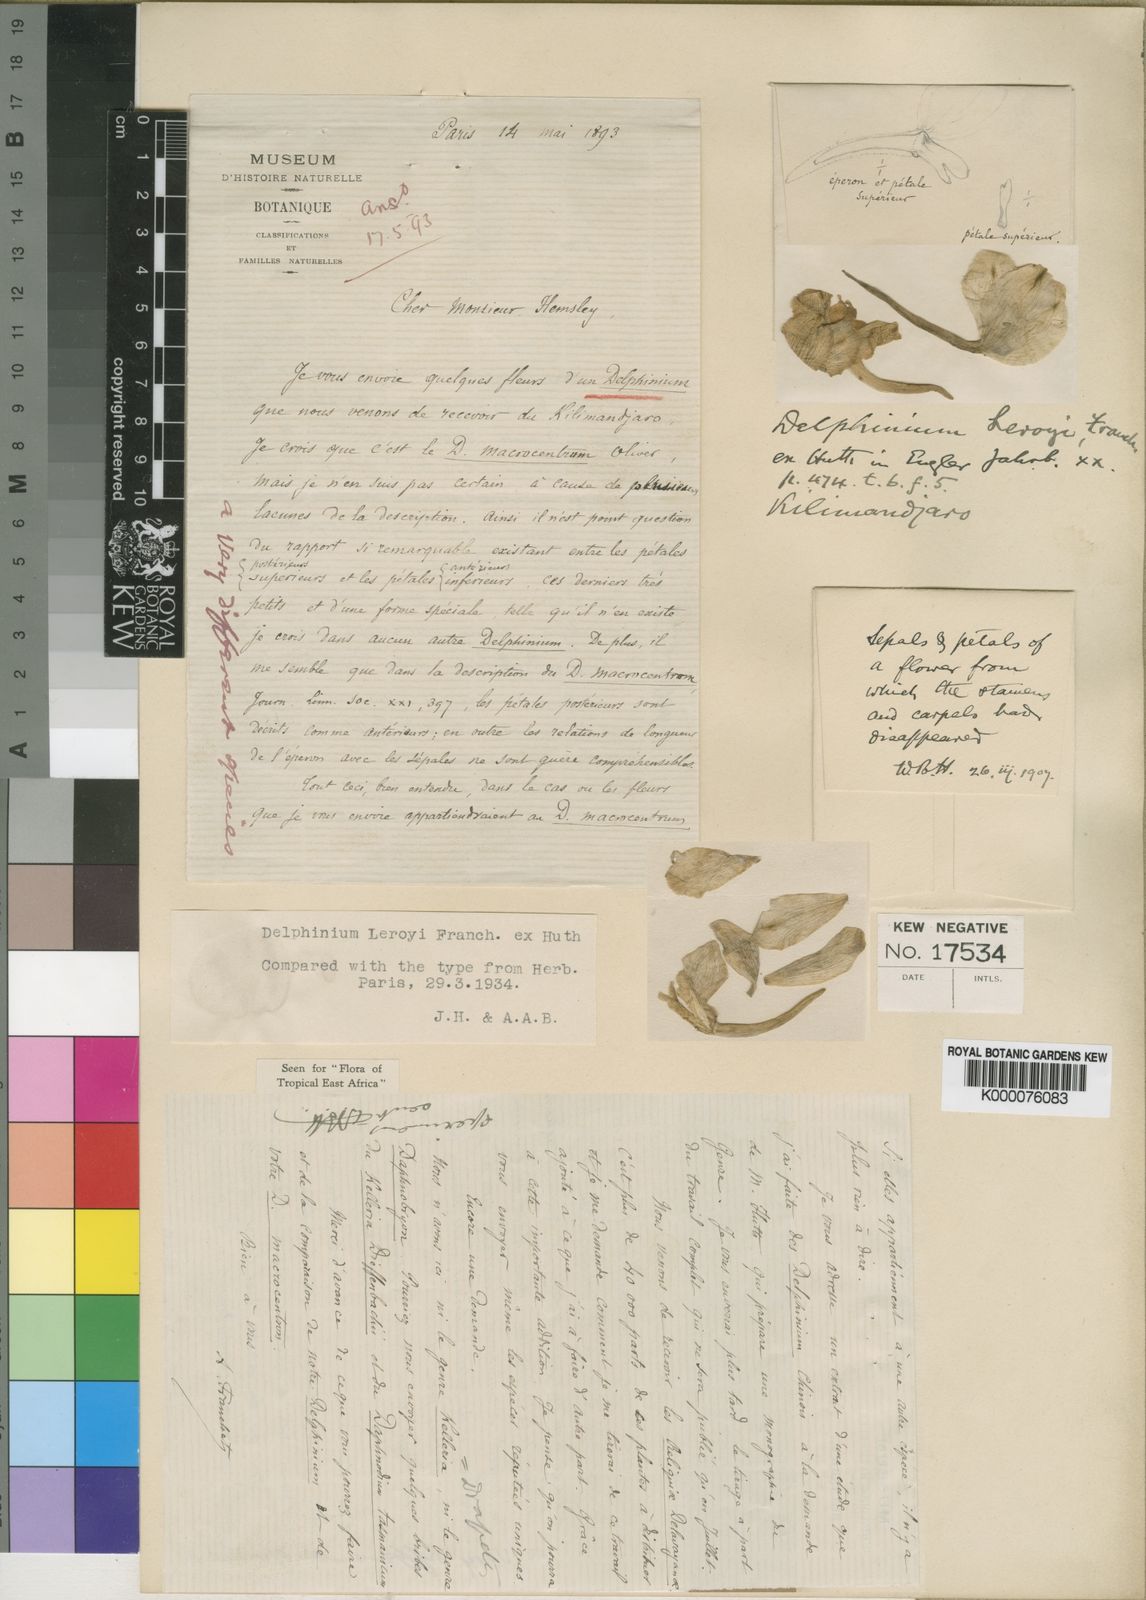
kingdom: Plantae
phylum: Tracheophyta
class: Magnoliopsida
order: Ranunculales
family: Ranunculaceae
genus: Delphinium
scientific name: Delphinium leroyi
